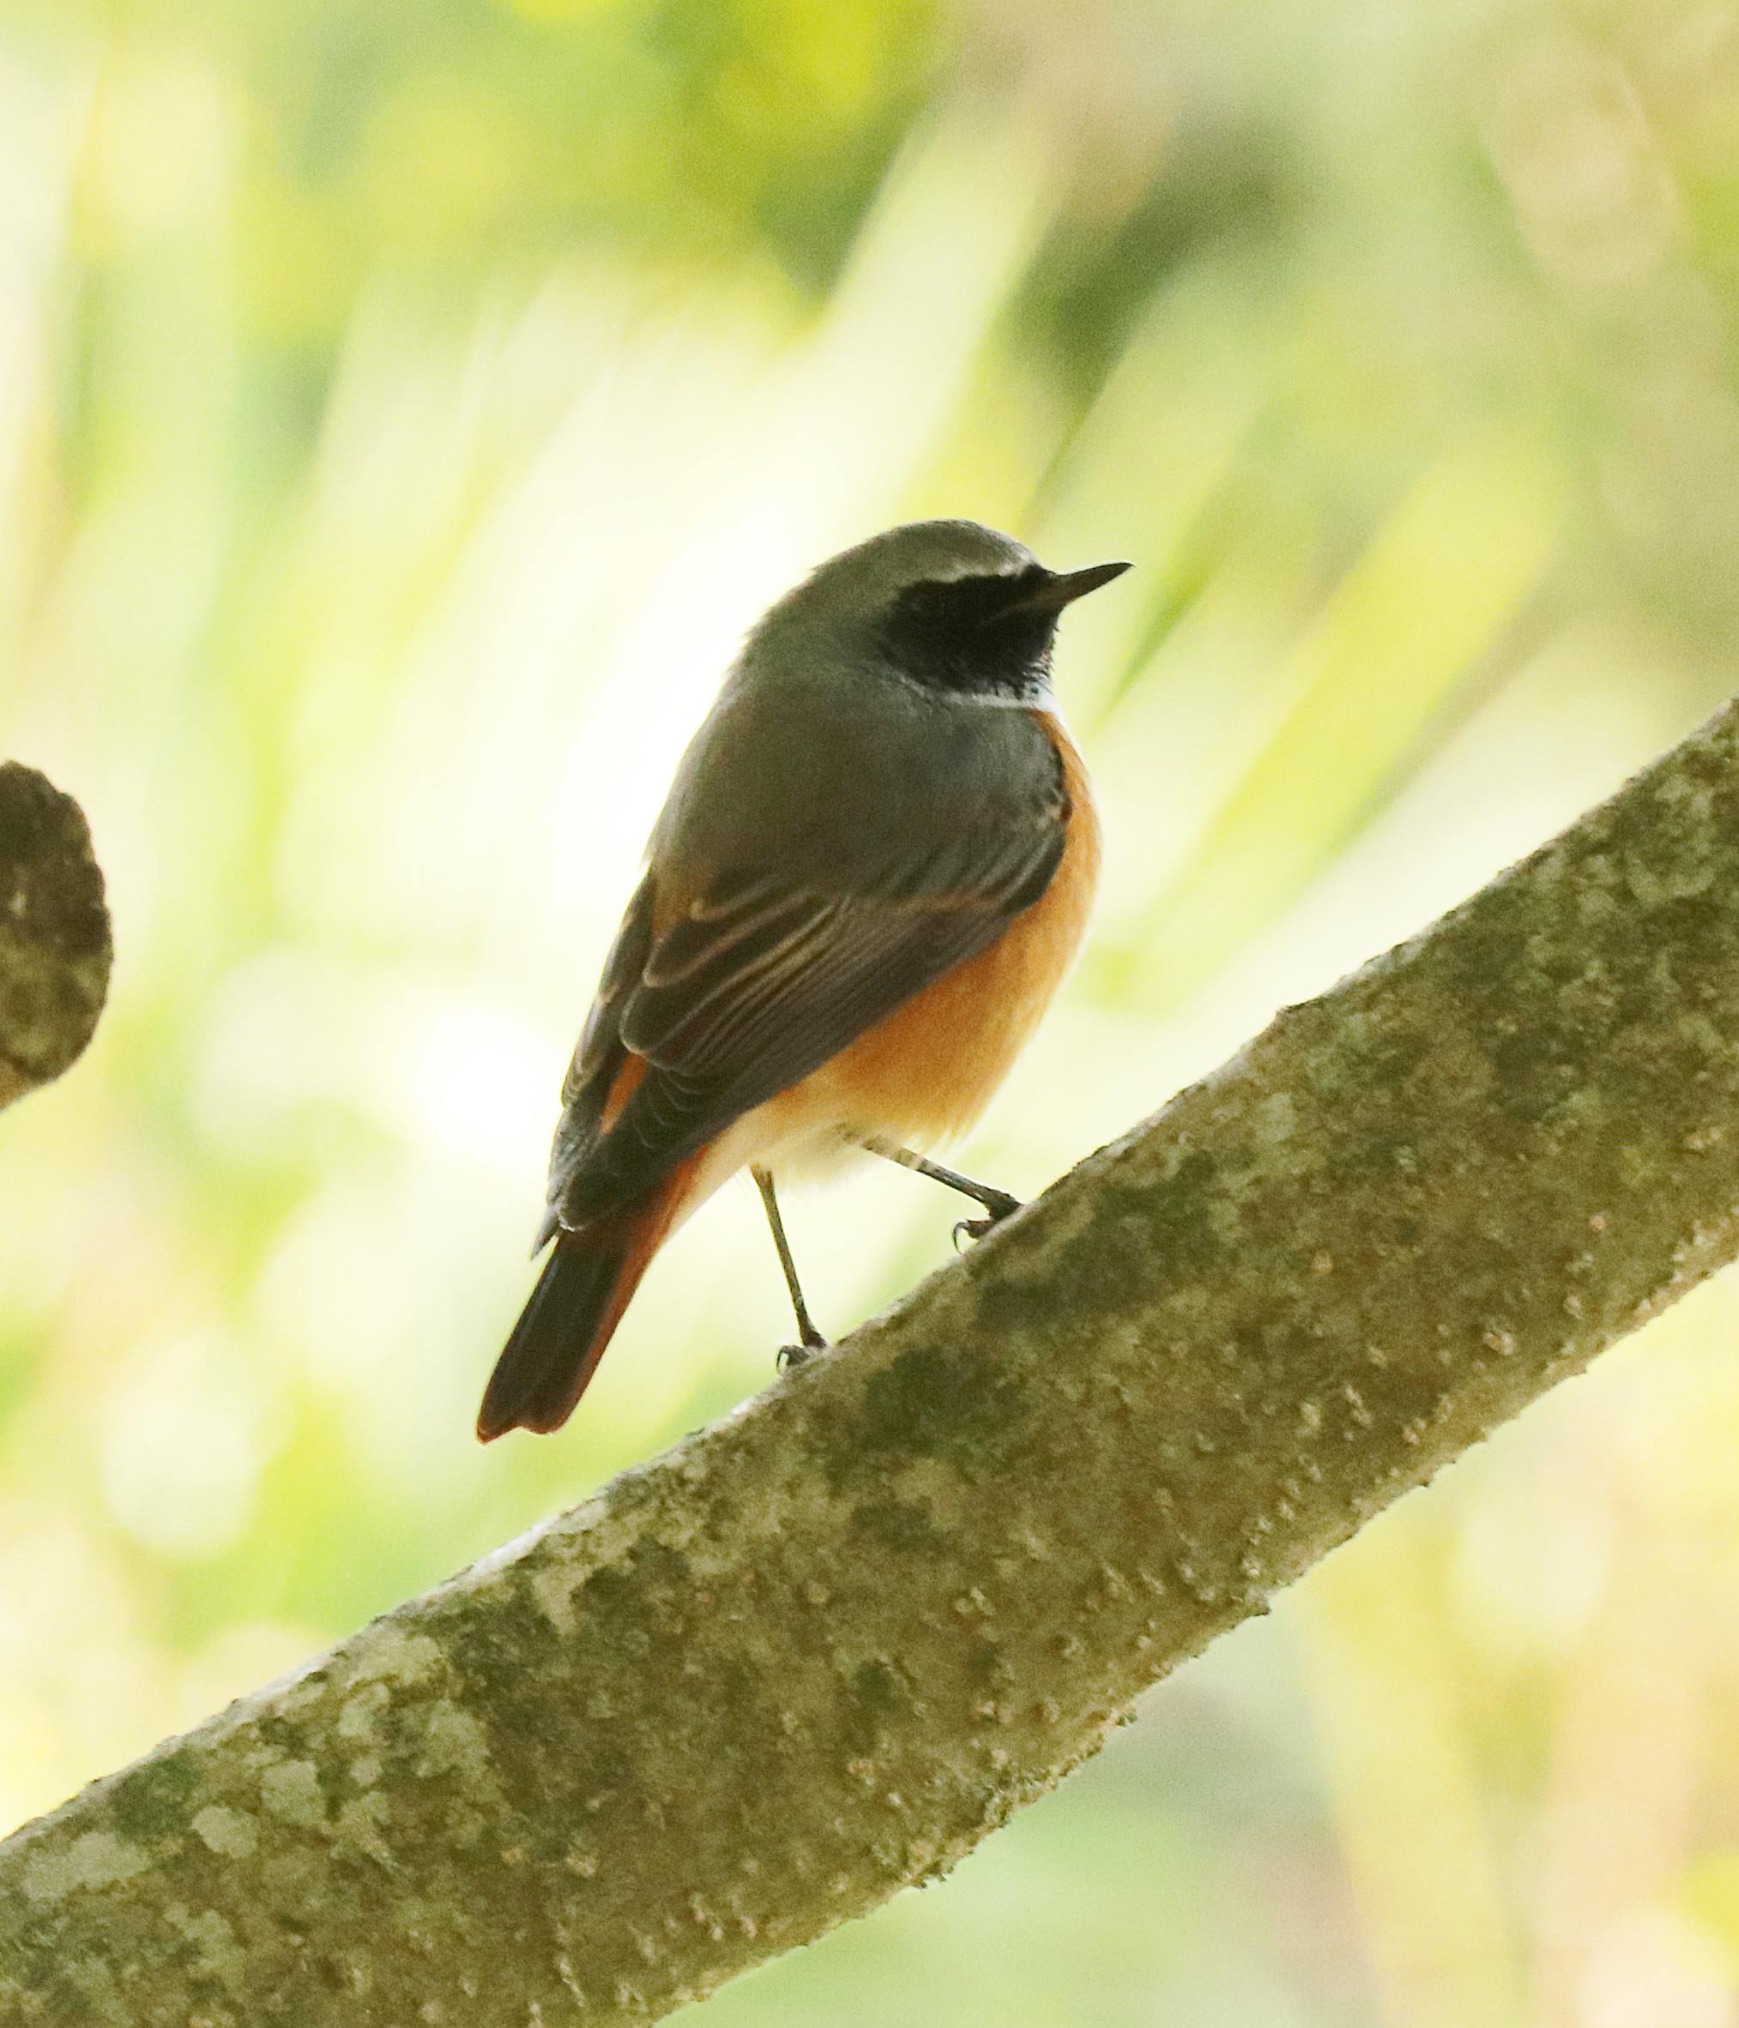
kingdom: Animalia
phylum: Chordata
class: Aves
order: Passeriformes
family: Muscicapidae
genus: Phoenicurus
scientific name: Phoenicurus phoenicurus
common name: Rødstjert
